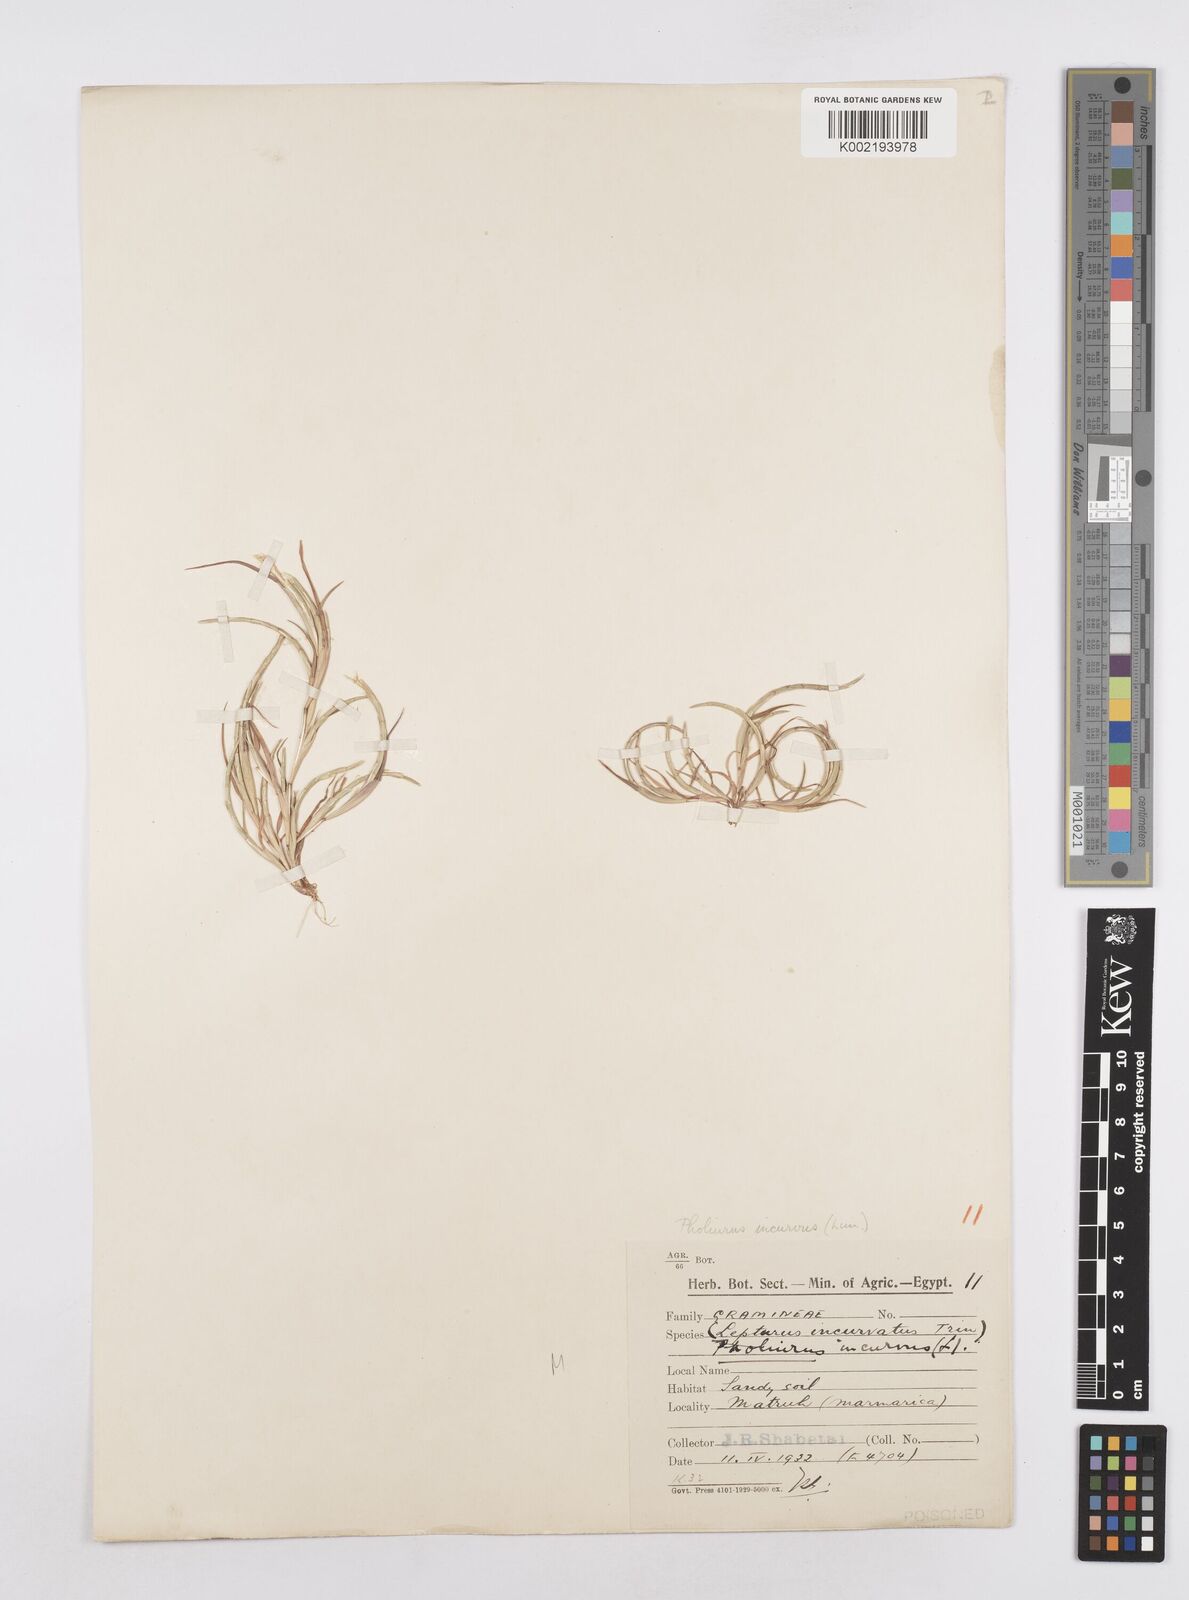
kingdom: Plantae
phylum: Tracheophyta
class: Liliopsida
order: Poales
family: Poaceae
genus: Parapholis
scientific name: Parapholis incurva
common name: Curved sicklegrass
